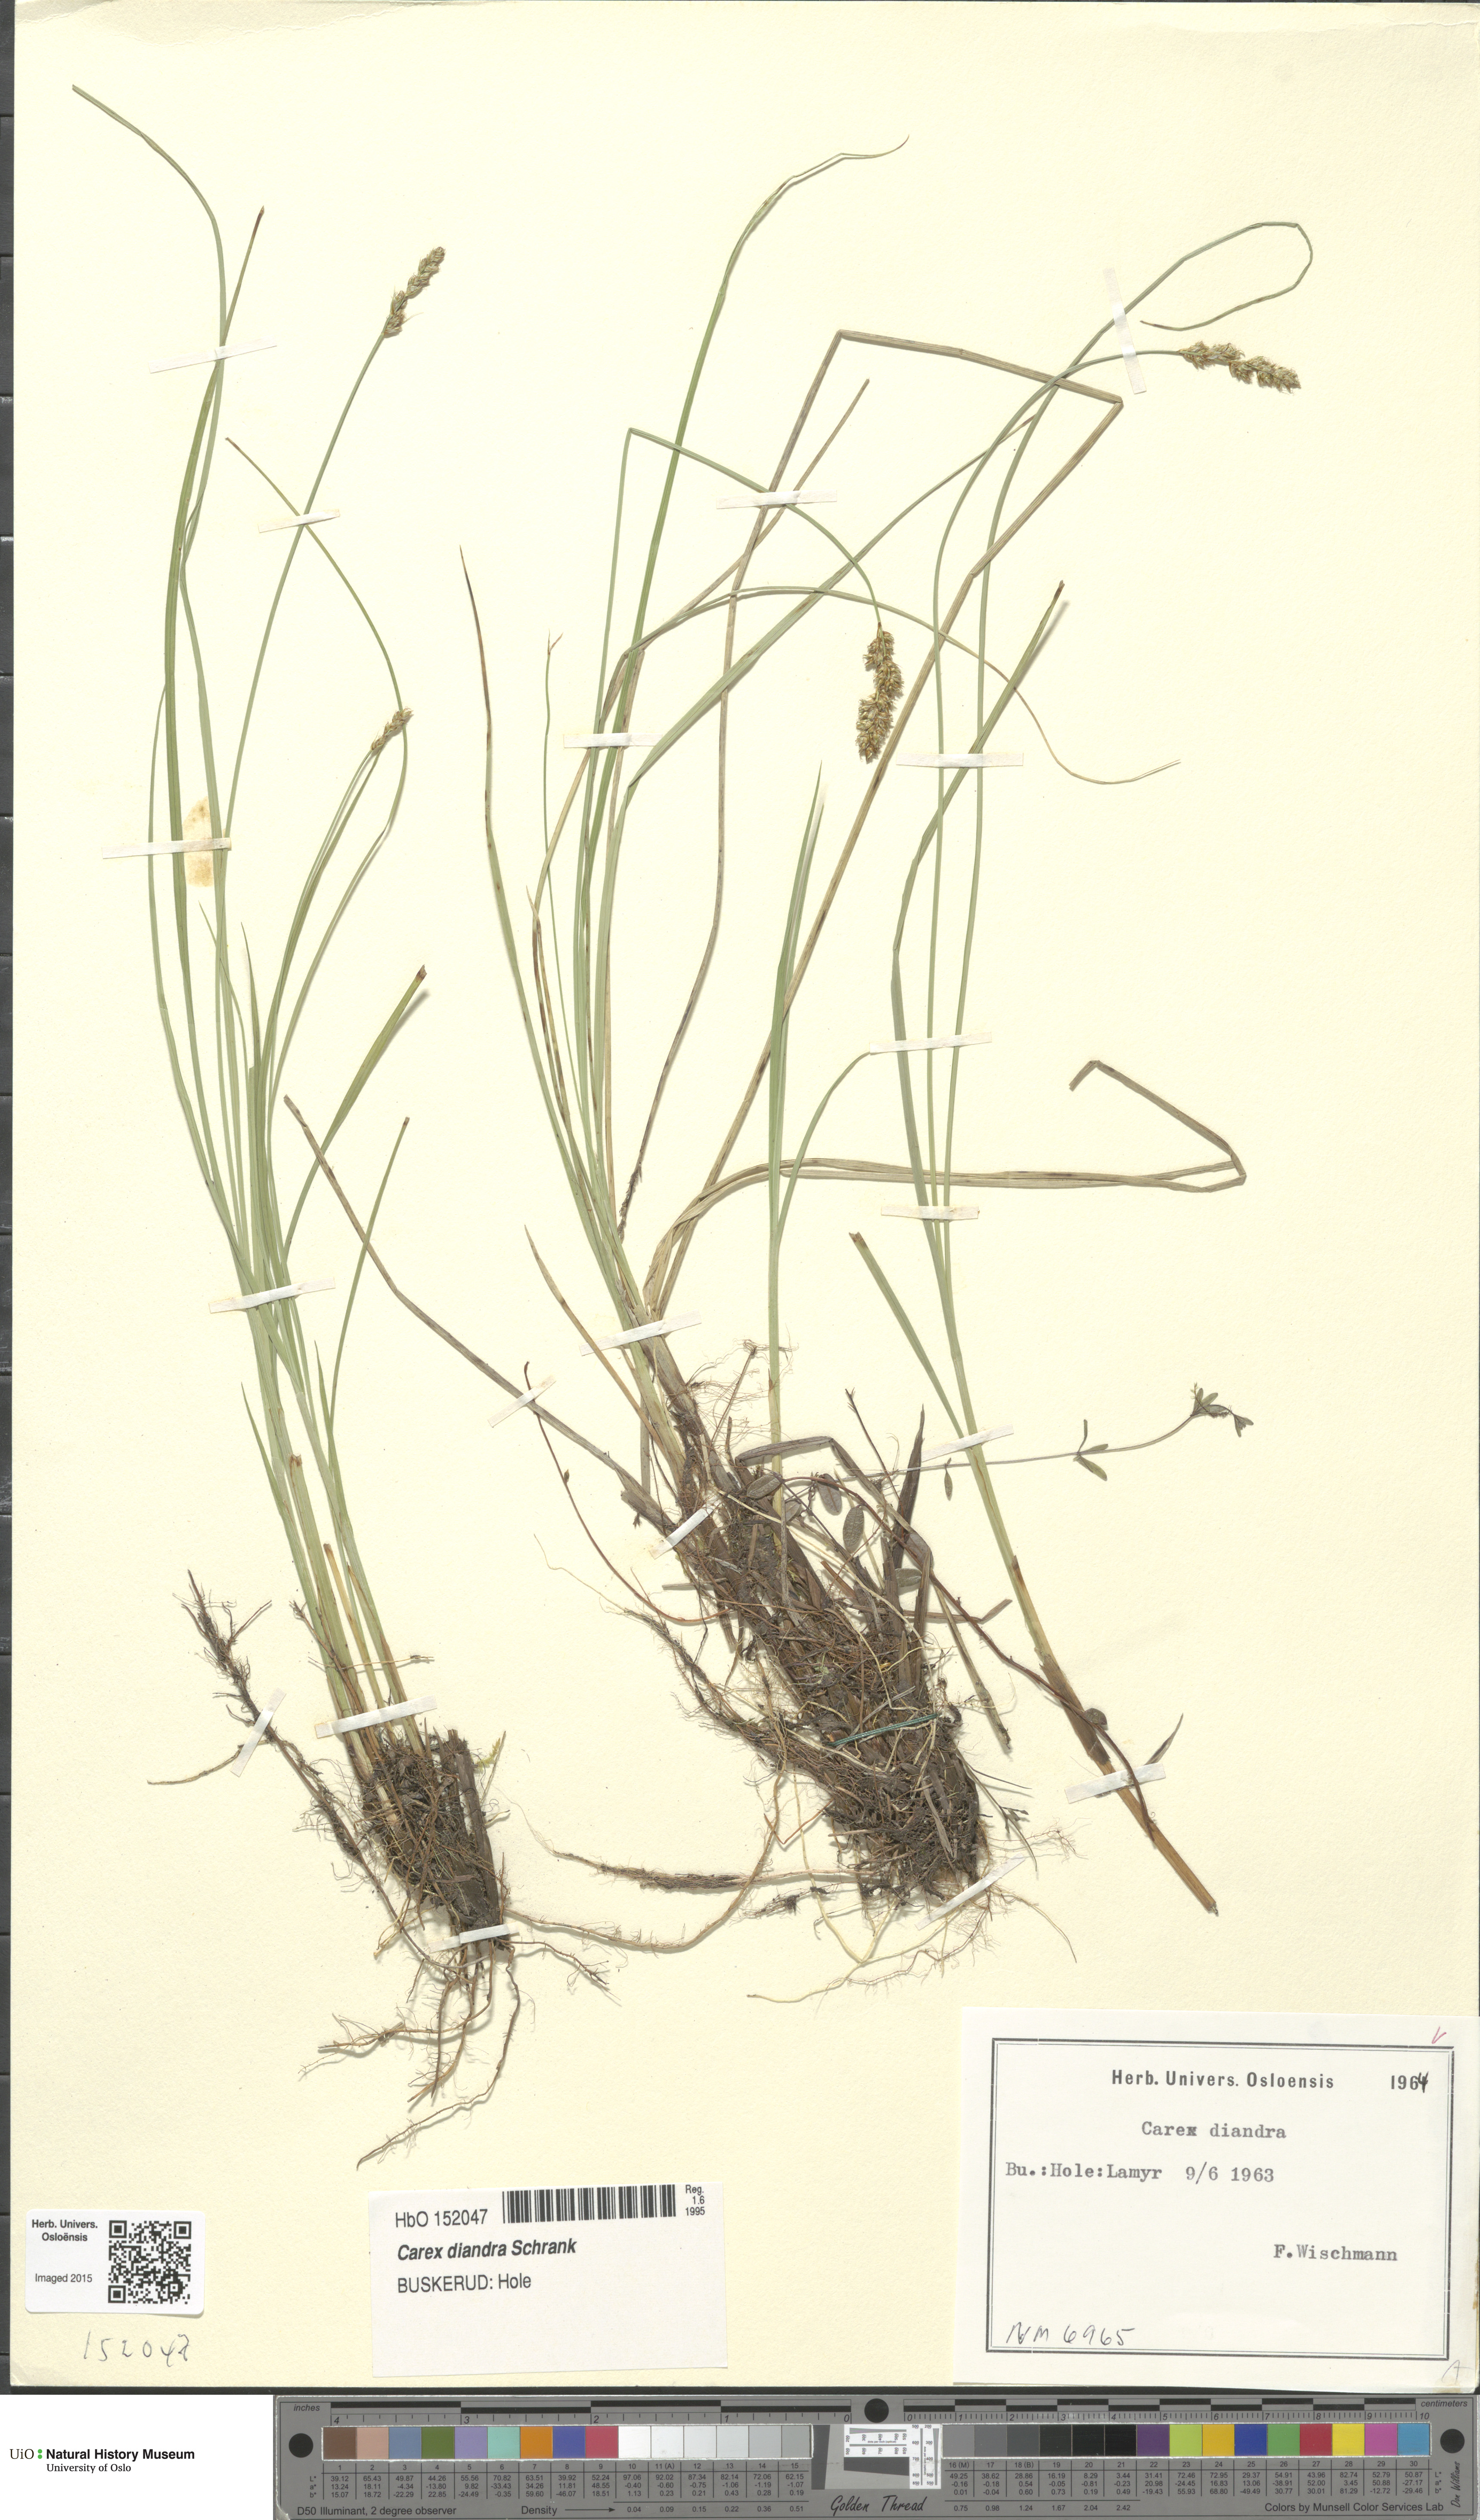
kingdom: Plantae
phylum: Tracheophyta
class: Liliopsida
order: Poales
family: Cyperaceae
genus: Carex
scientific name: Carex diandra
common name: Lesser tussock-sedge
